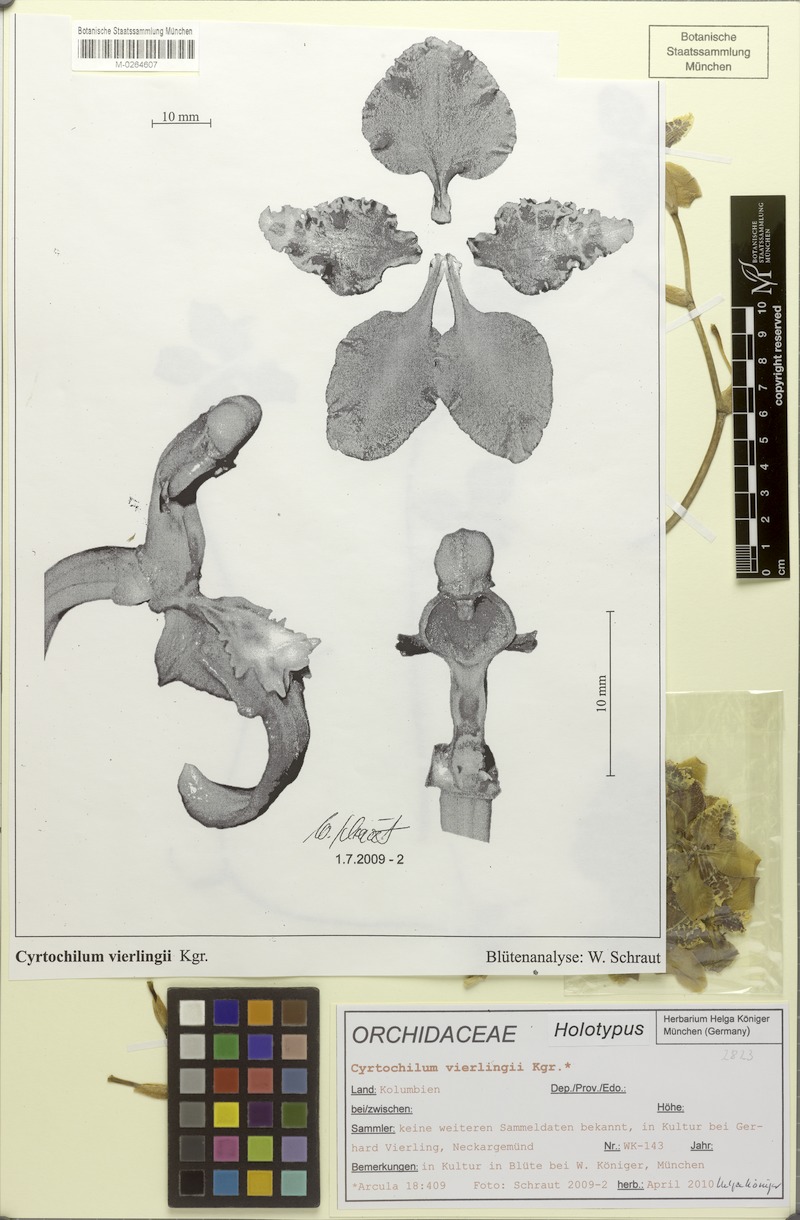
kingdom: Plantae
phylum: Tracheophyta
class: Liliopsida
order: Asparagales
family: Orchidaceae
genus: Cyrtochilum
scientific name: Cyrtochilum vierlingii
